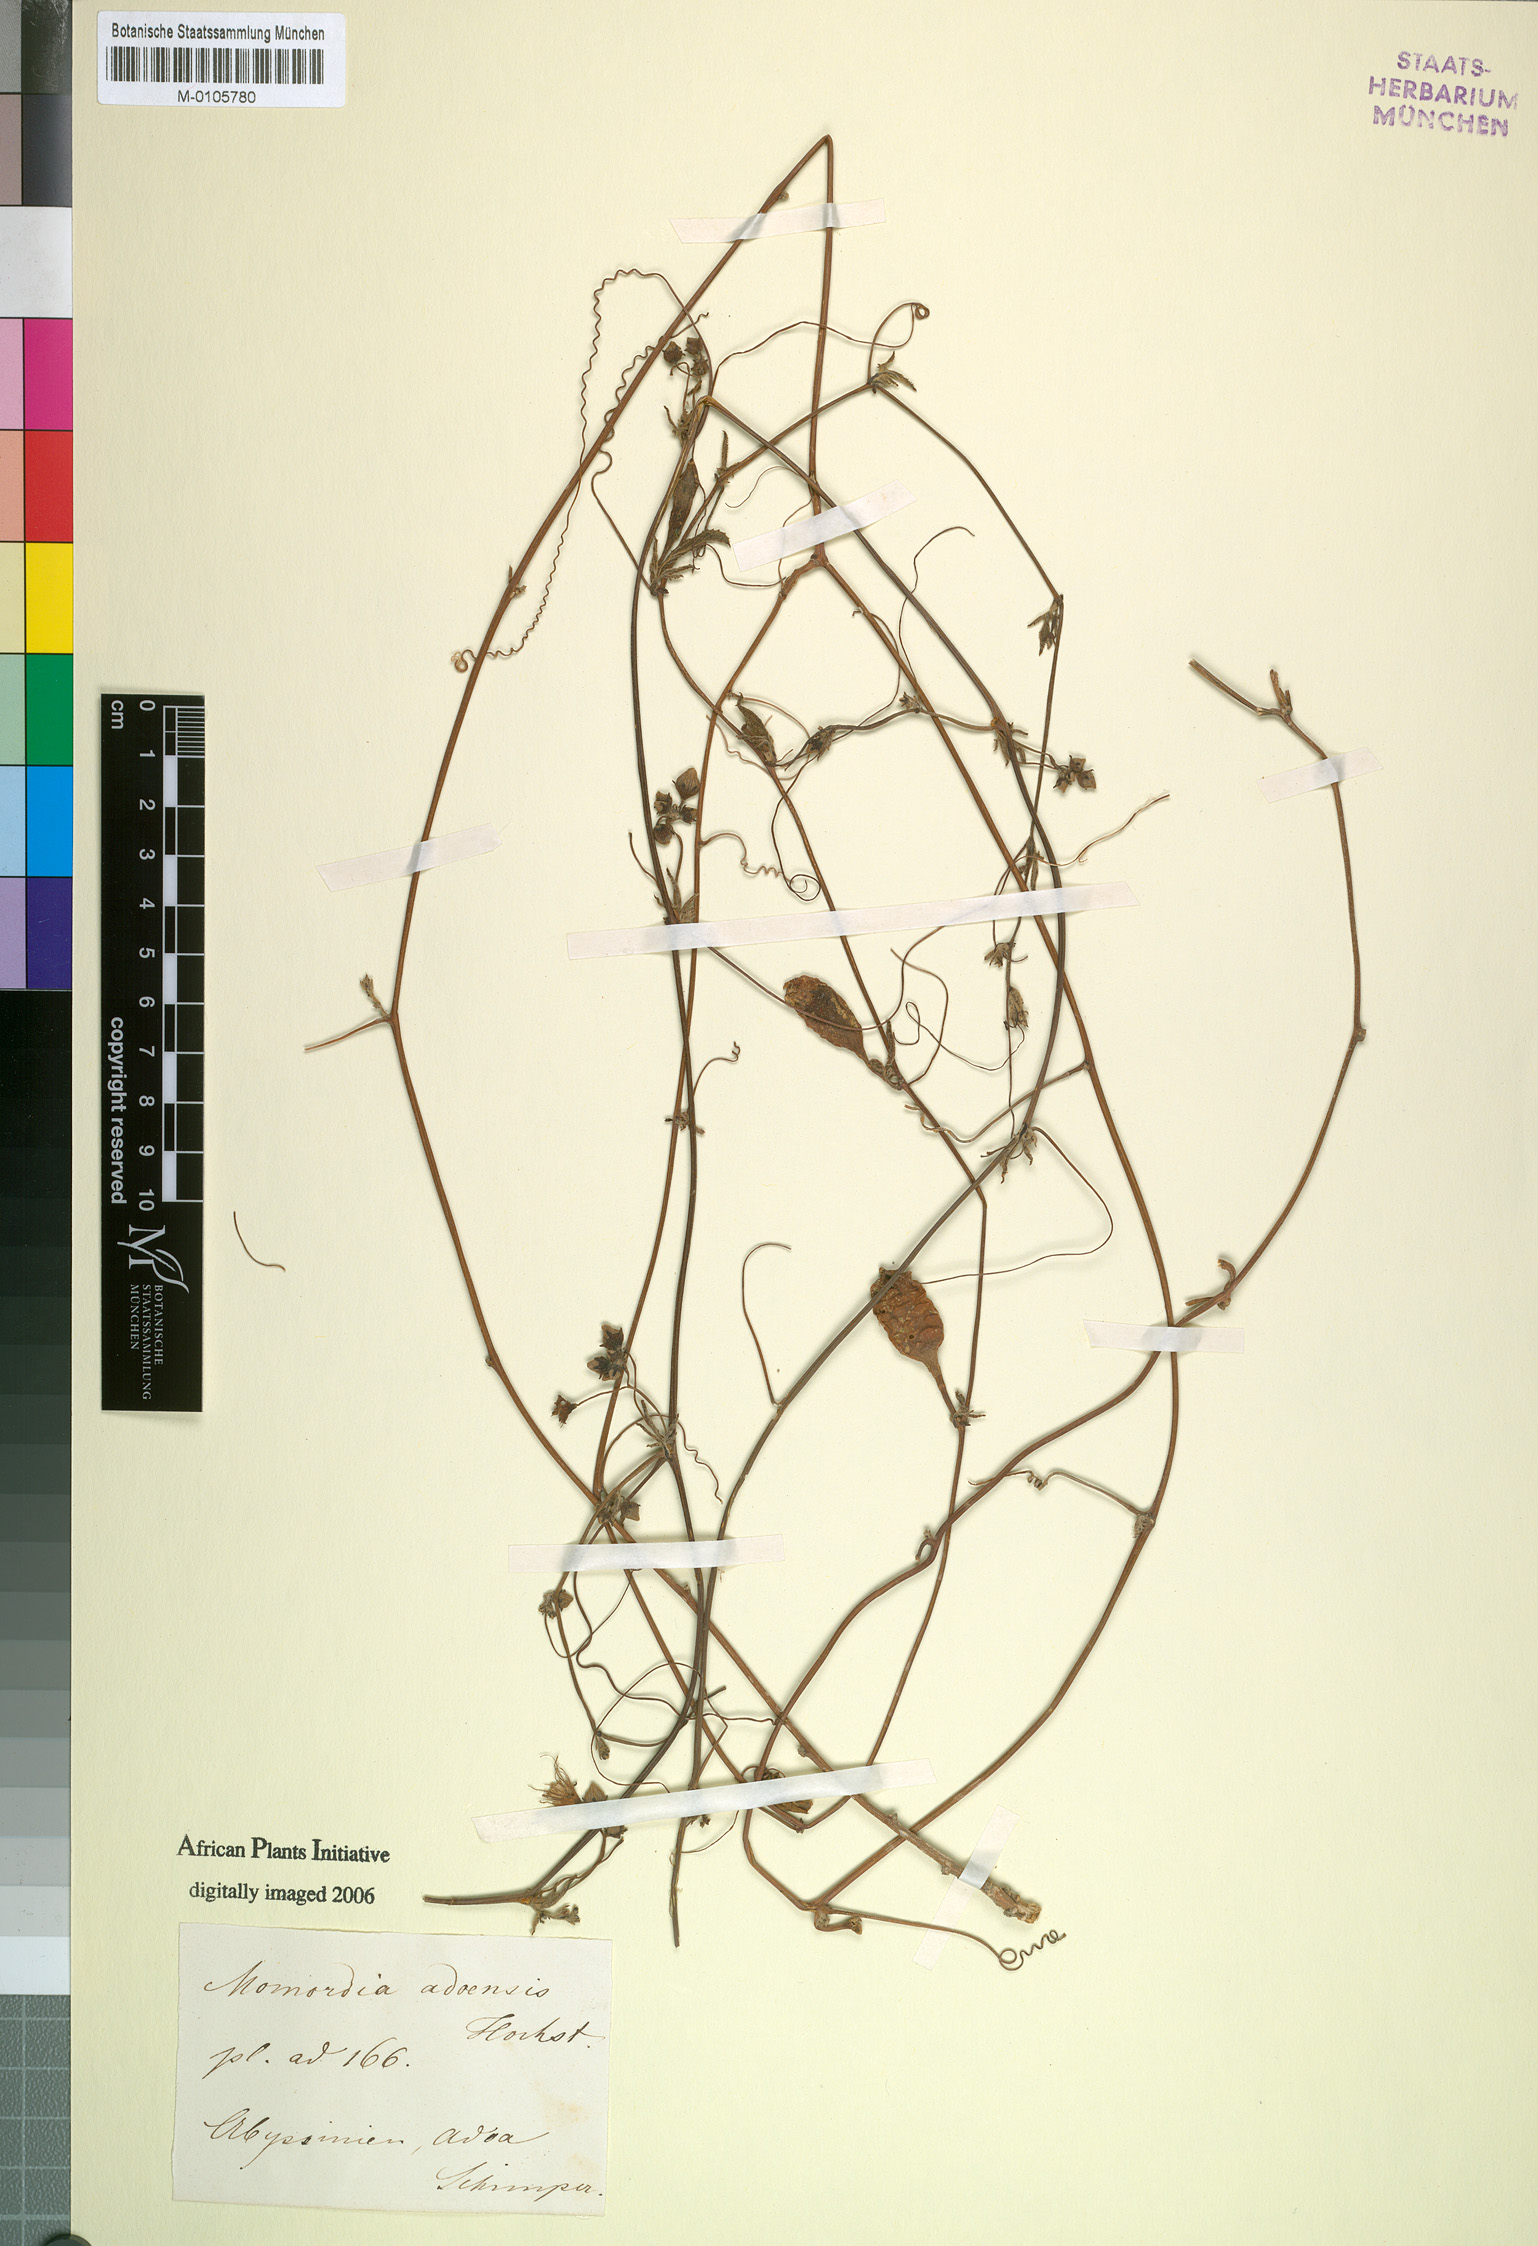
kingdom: Plantae
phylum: Tracheophyta
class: Magnoliopsida
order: Cucurbitales
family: Cucurbitaceae
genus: Coccinia
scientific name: Coccinia adoensis
